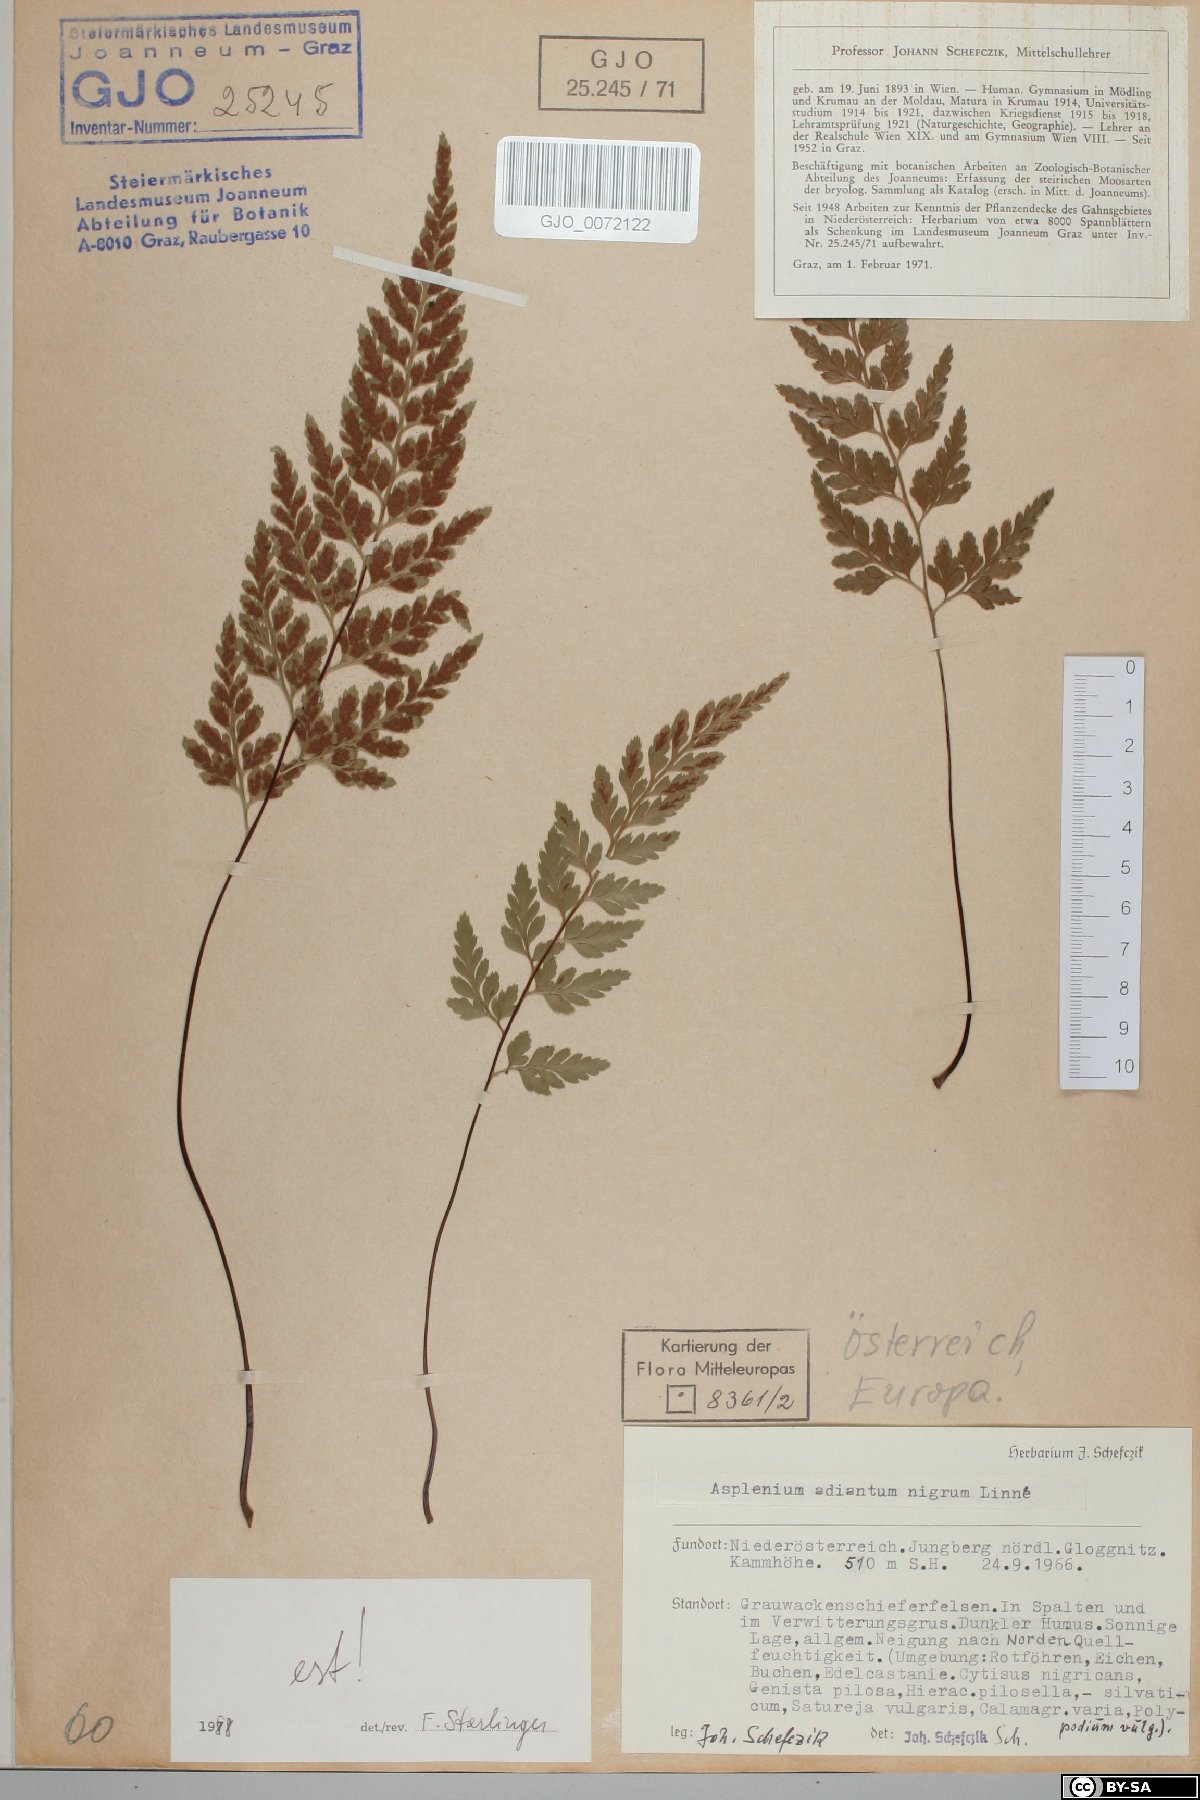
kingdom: Plantae
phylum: Tracheophyta
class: Polypodiopsida
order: Polypodiales
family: Aspleniaceae
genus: Asplenium
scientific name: Asplenium adiantum-nigrum
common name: Black spleenwort
